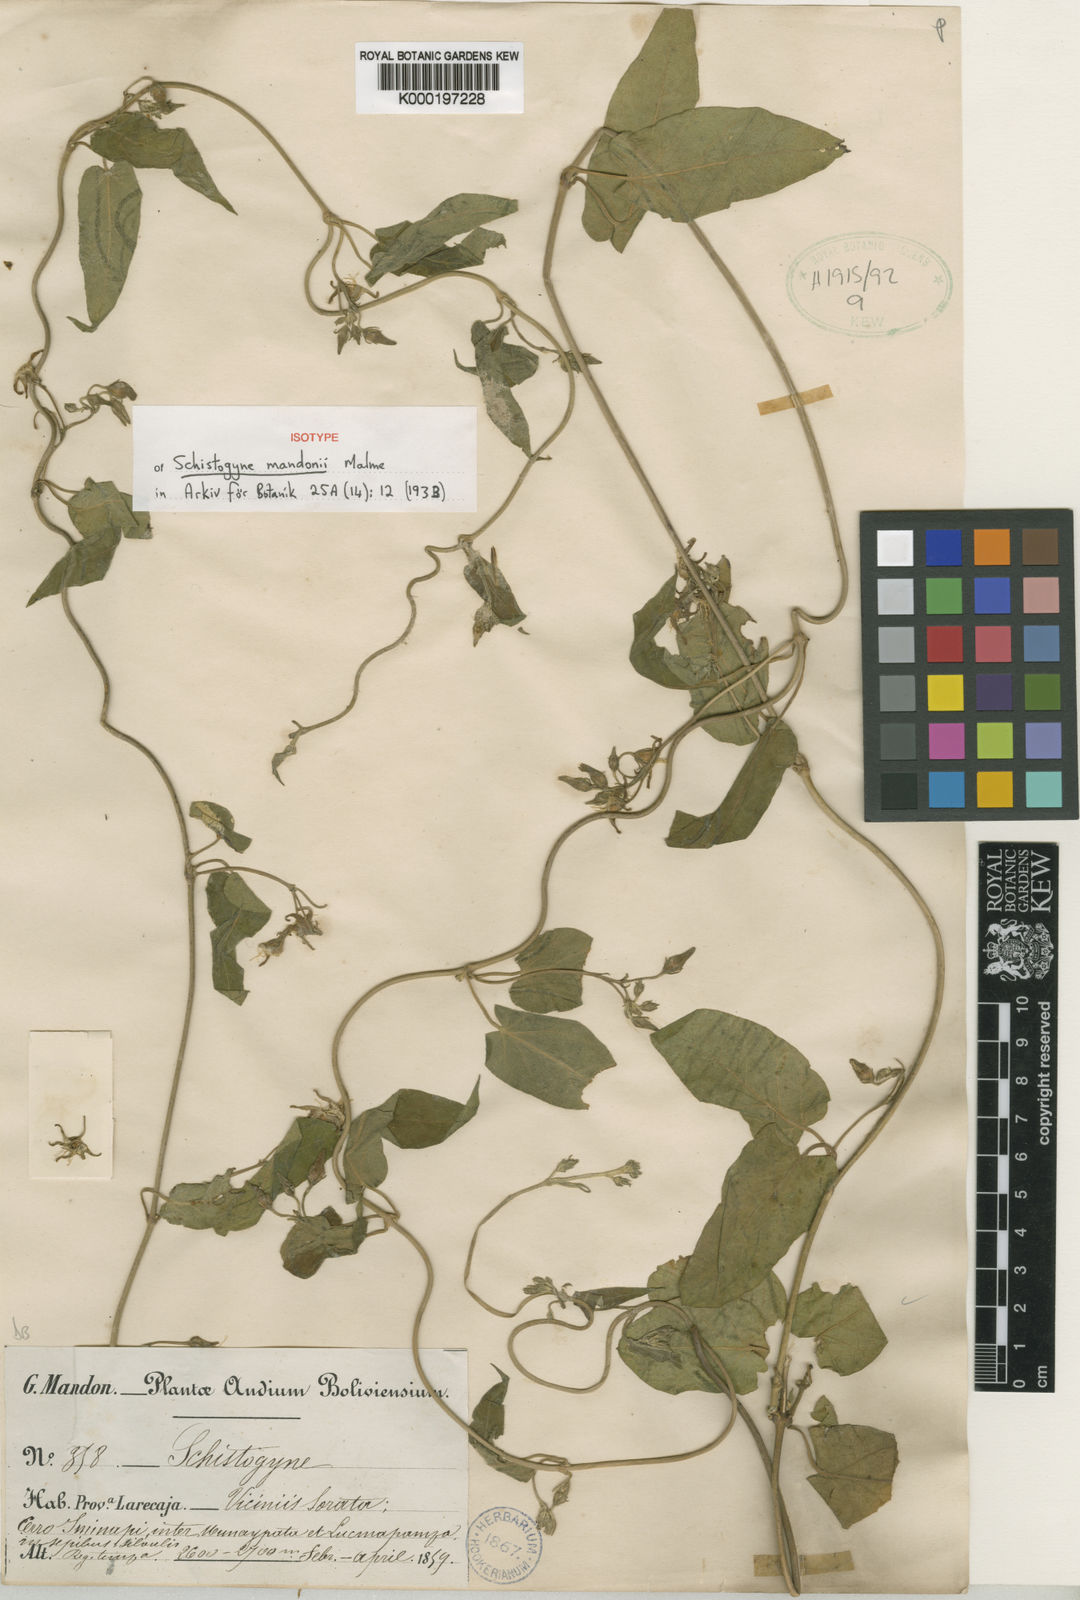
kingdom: Plantae
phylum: Tracheophyta
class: Magnoliopsida
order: Gentianales
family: Apocynaceae
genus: Oxypetalum
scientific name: Oxypetalum pentasetum
